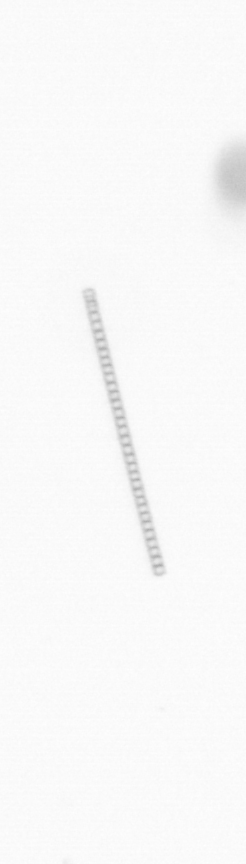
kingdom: Chromista
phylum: Ochrophyta
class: Bacillariophyceae
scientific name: Bacillariophyceae
